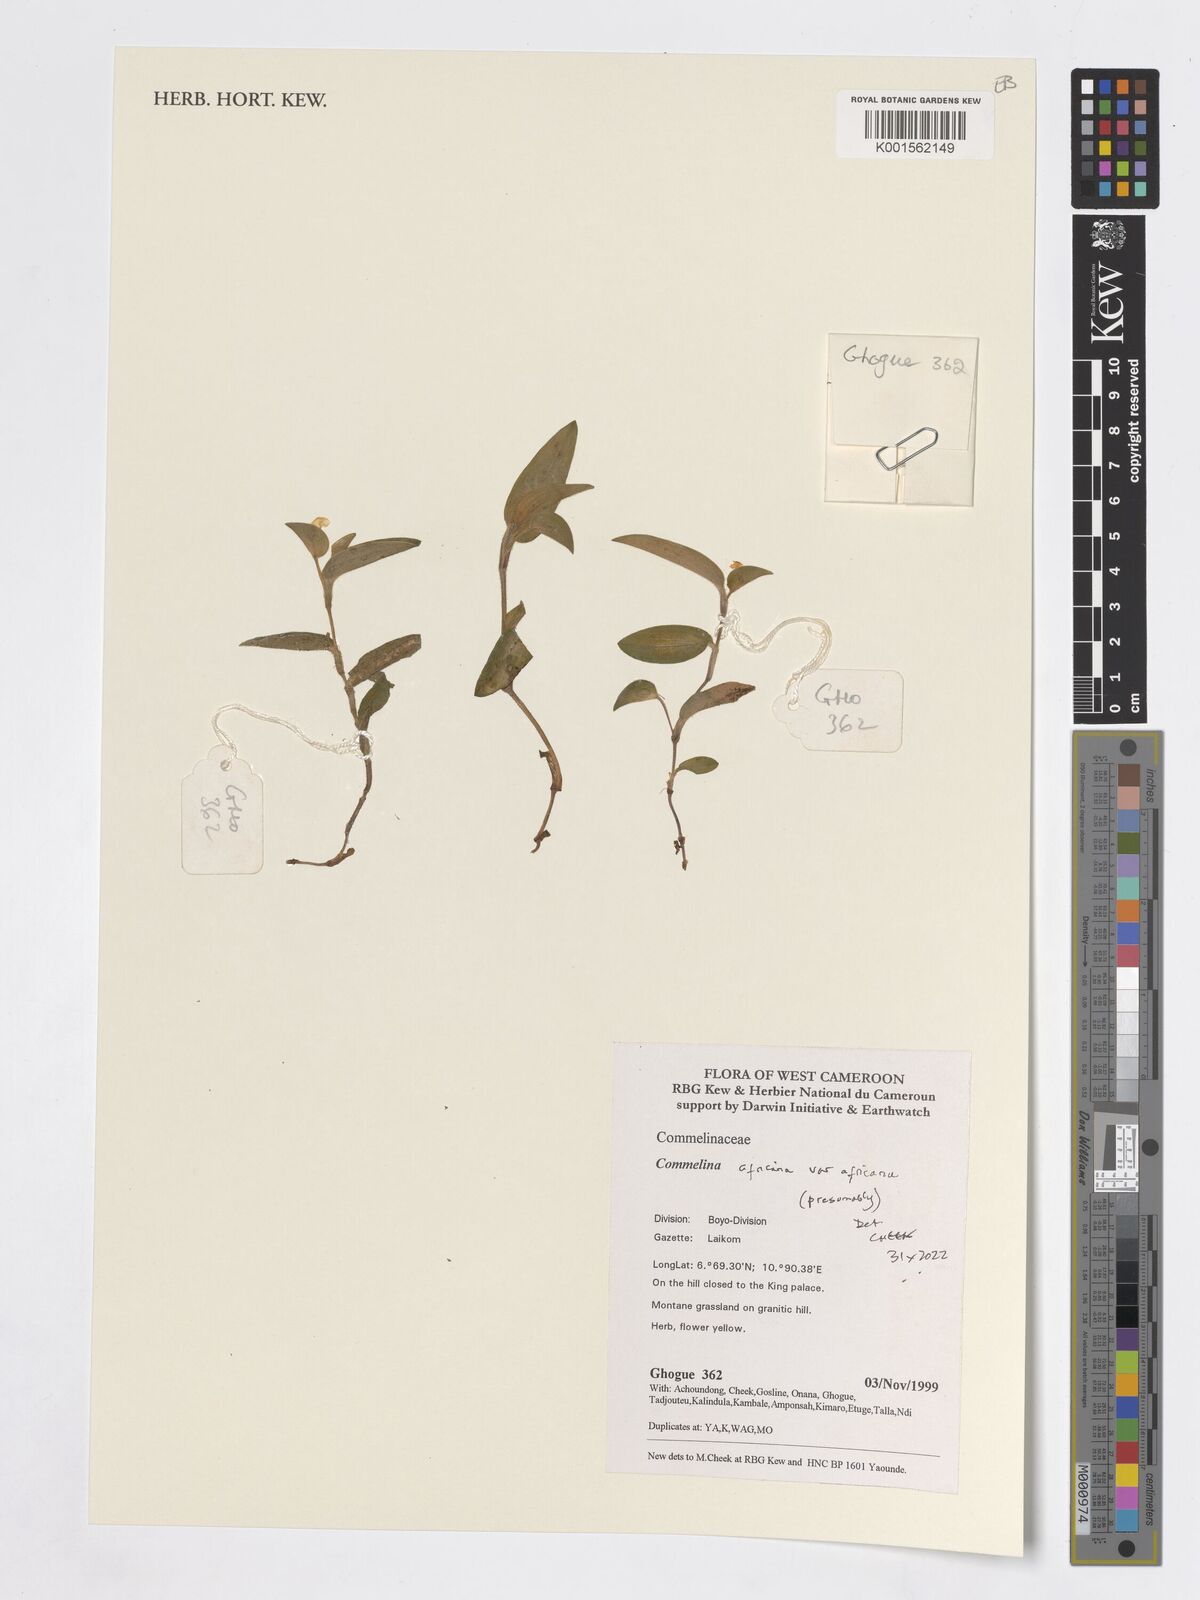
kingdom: Plantae
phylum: Tracheophyta
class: Liliopsida
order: Commelinales
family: Commelinaceae
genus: Commelina
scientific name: Commelina africana
